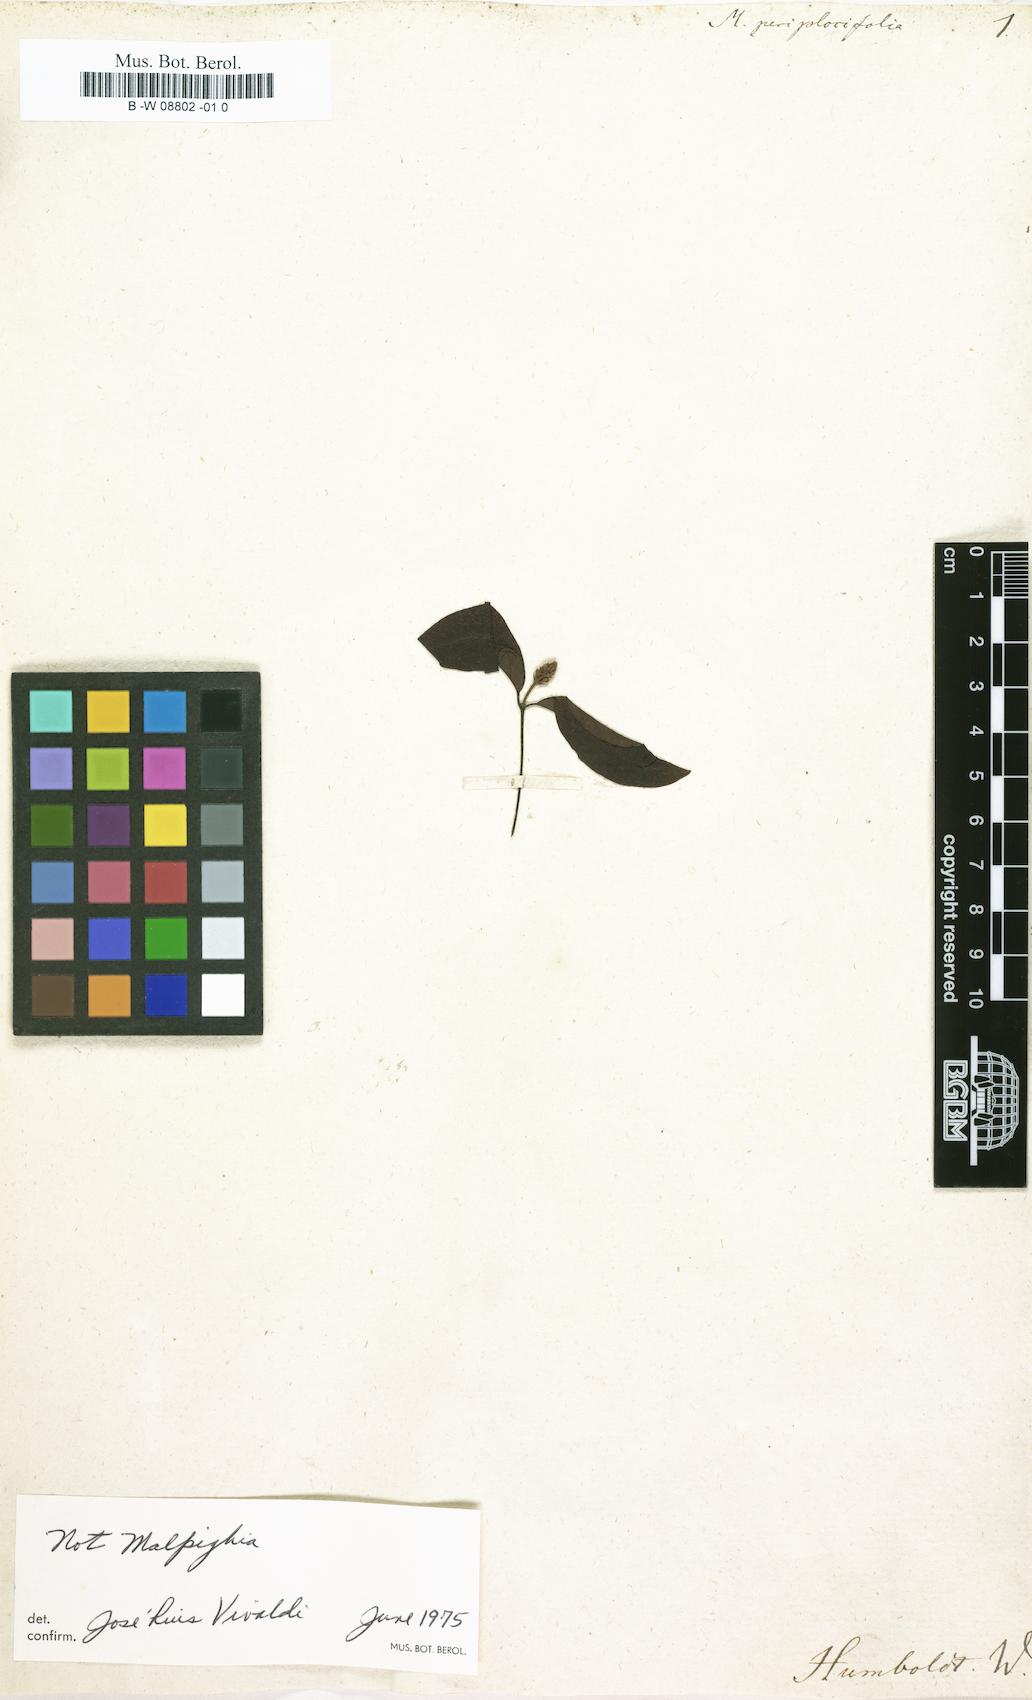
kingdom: Plantae
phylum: Tracheophyta
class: Magnoliopsida
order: Malpighiales
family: Malpighiaceae
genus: Malpighia
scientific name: Malpighia
